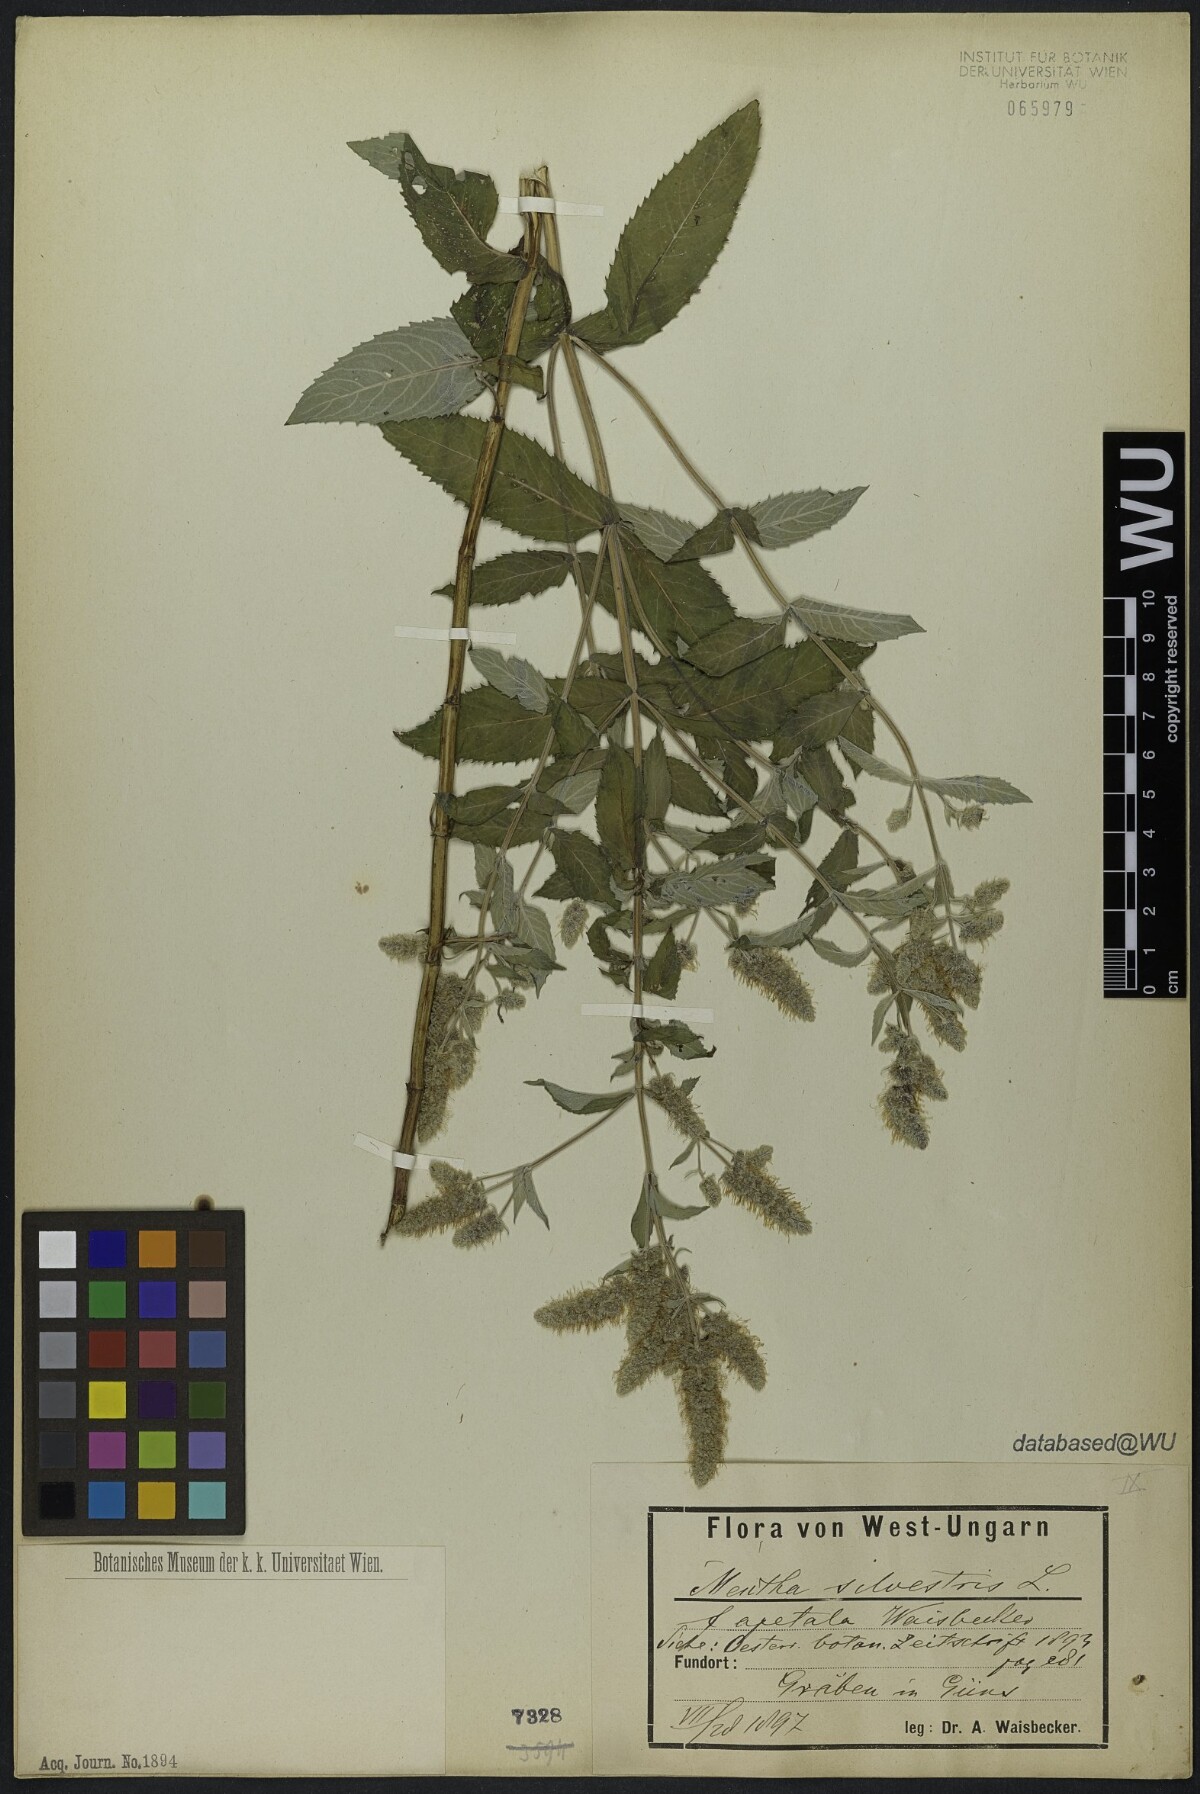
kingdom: Plantae
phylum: Tracheophyta
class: Magnoliopsida
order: Lamiales
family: Lamiaceae
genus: Mentha
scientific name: Mentha
